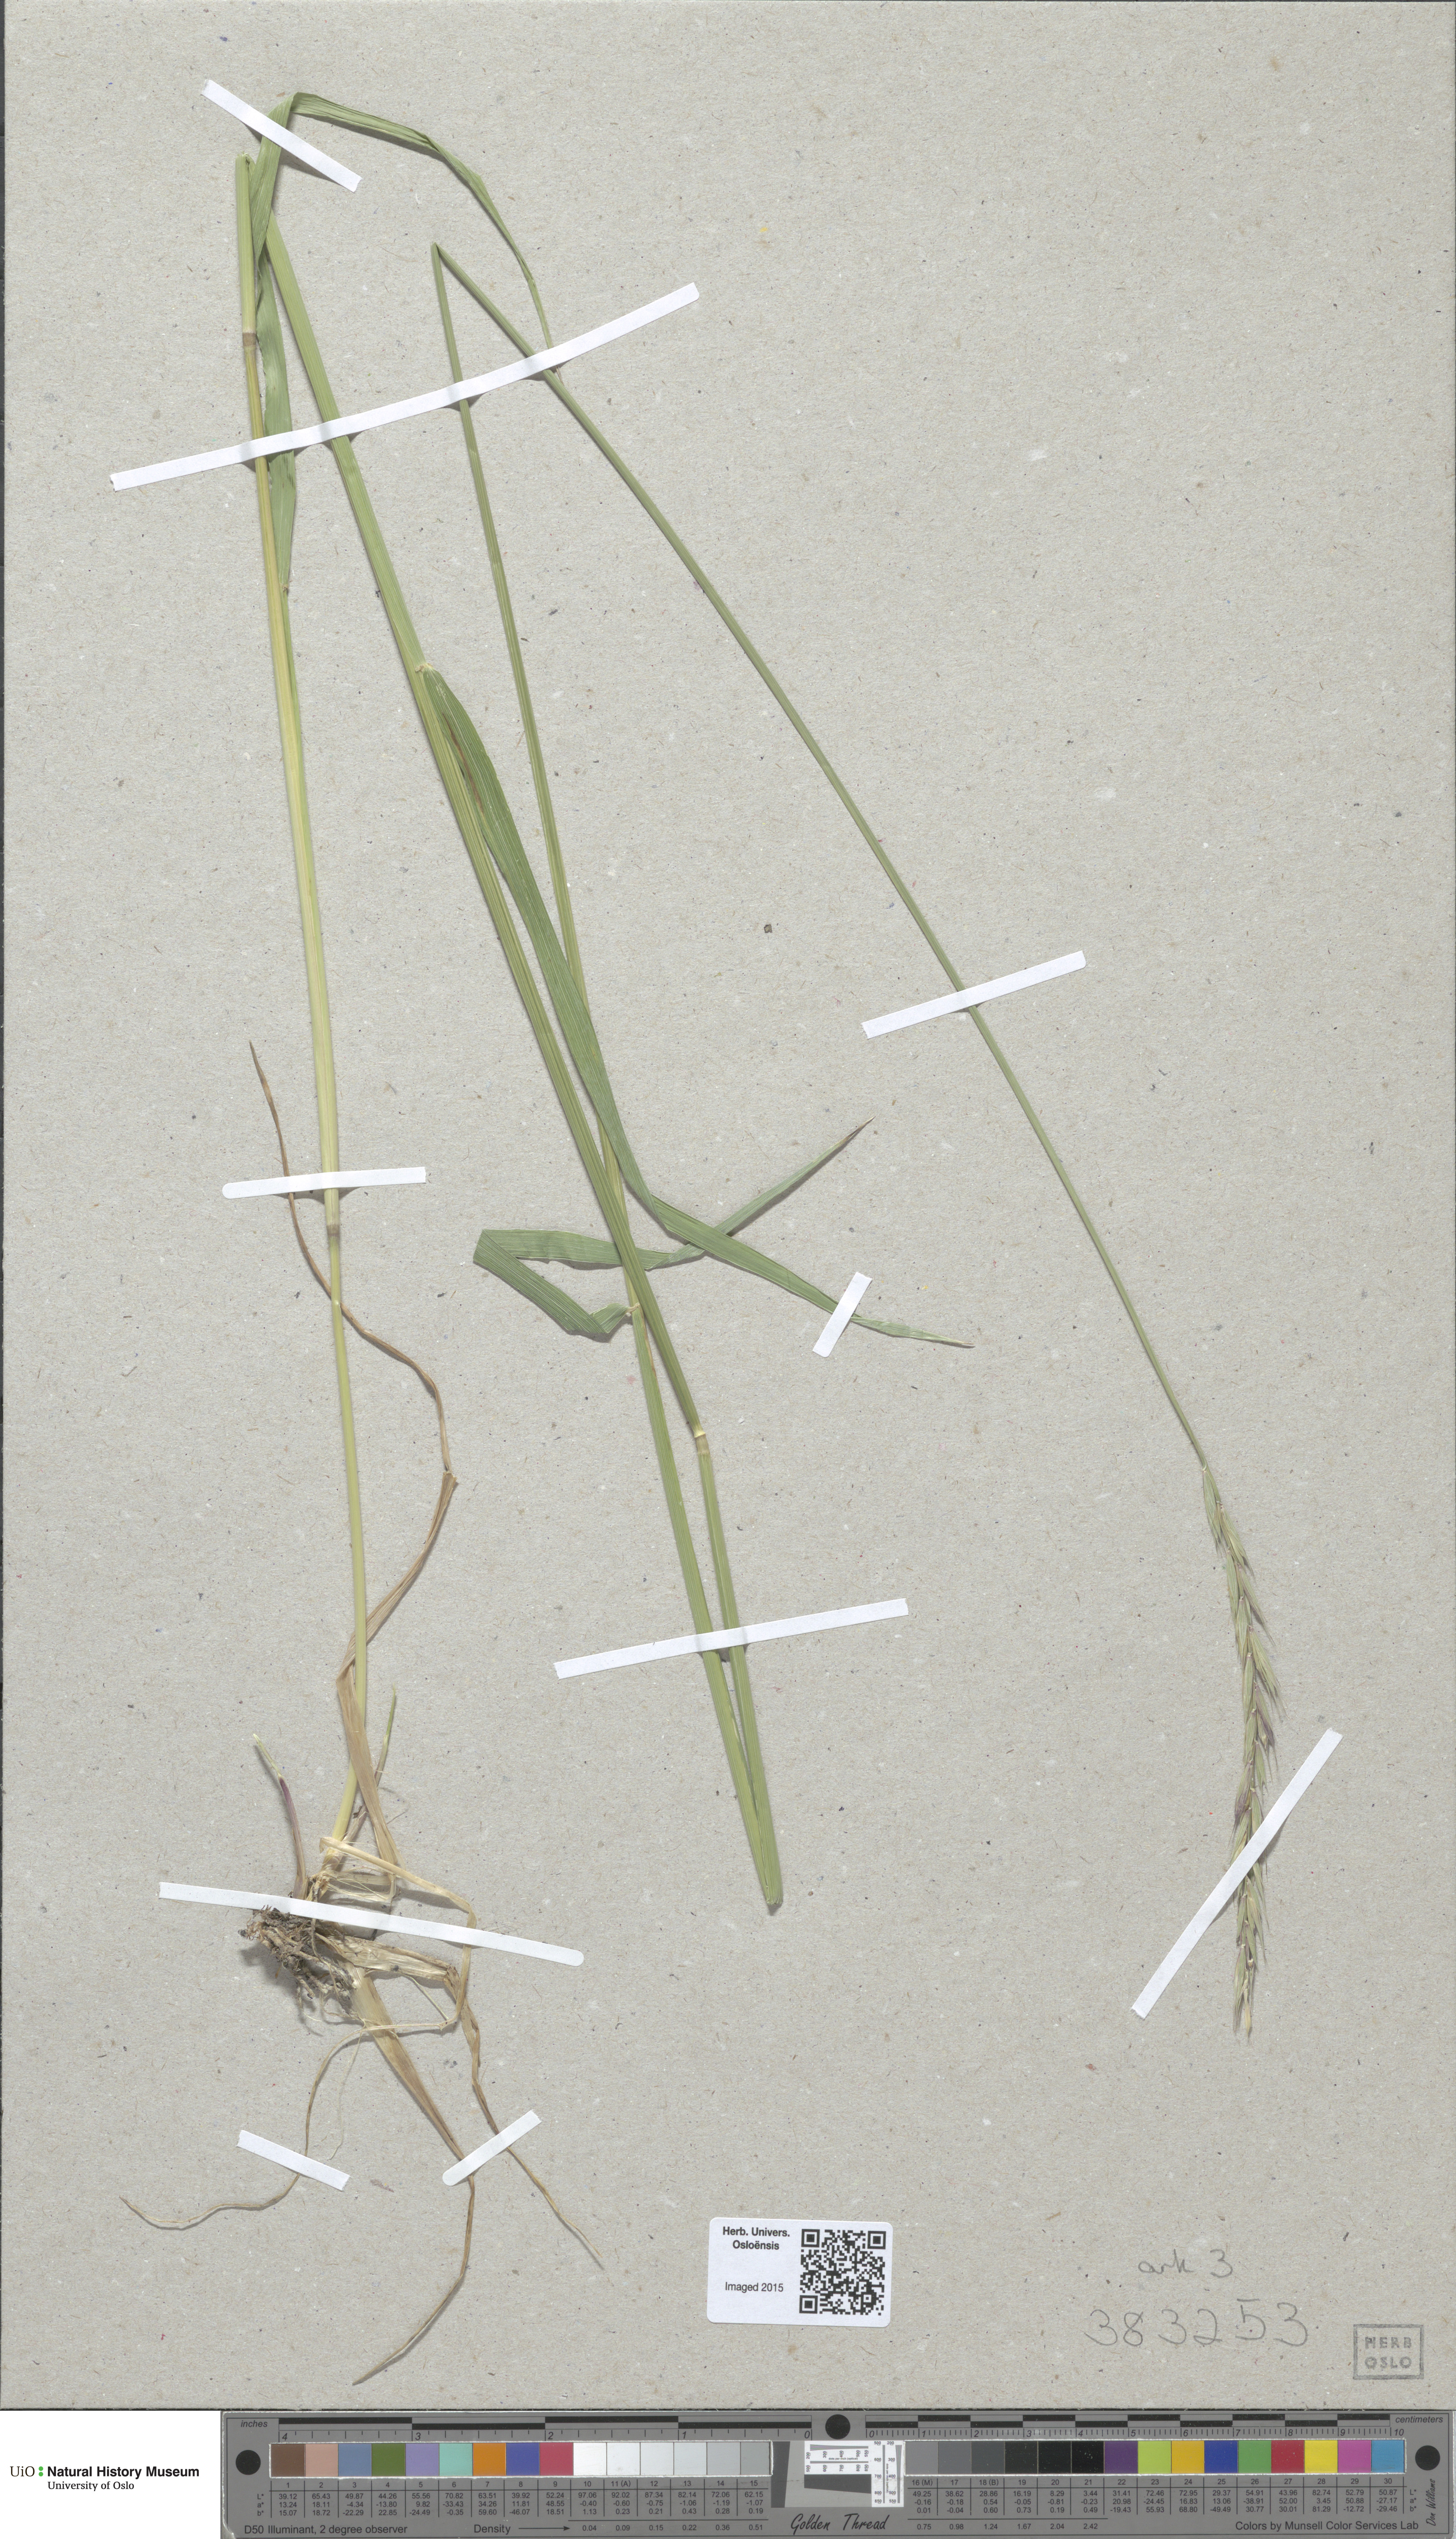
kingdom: Plantae
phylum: Tracheophyta
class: Liliopsida
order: Poales
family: Poaceae
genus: Elymus
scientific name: Elymus mutabilis
